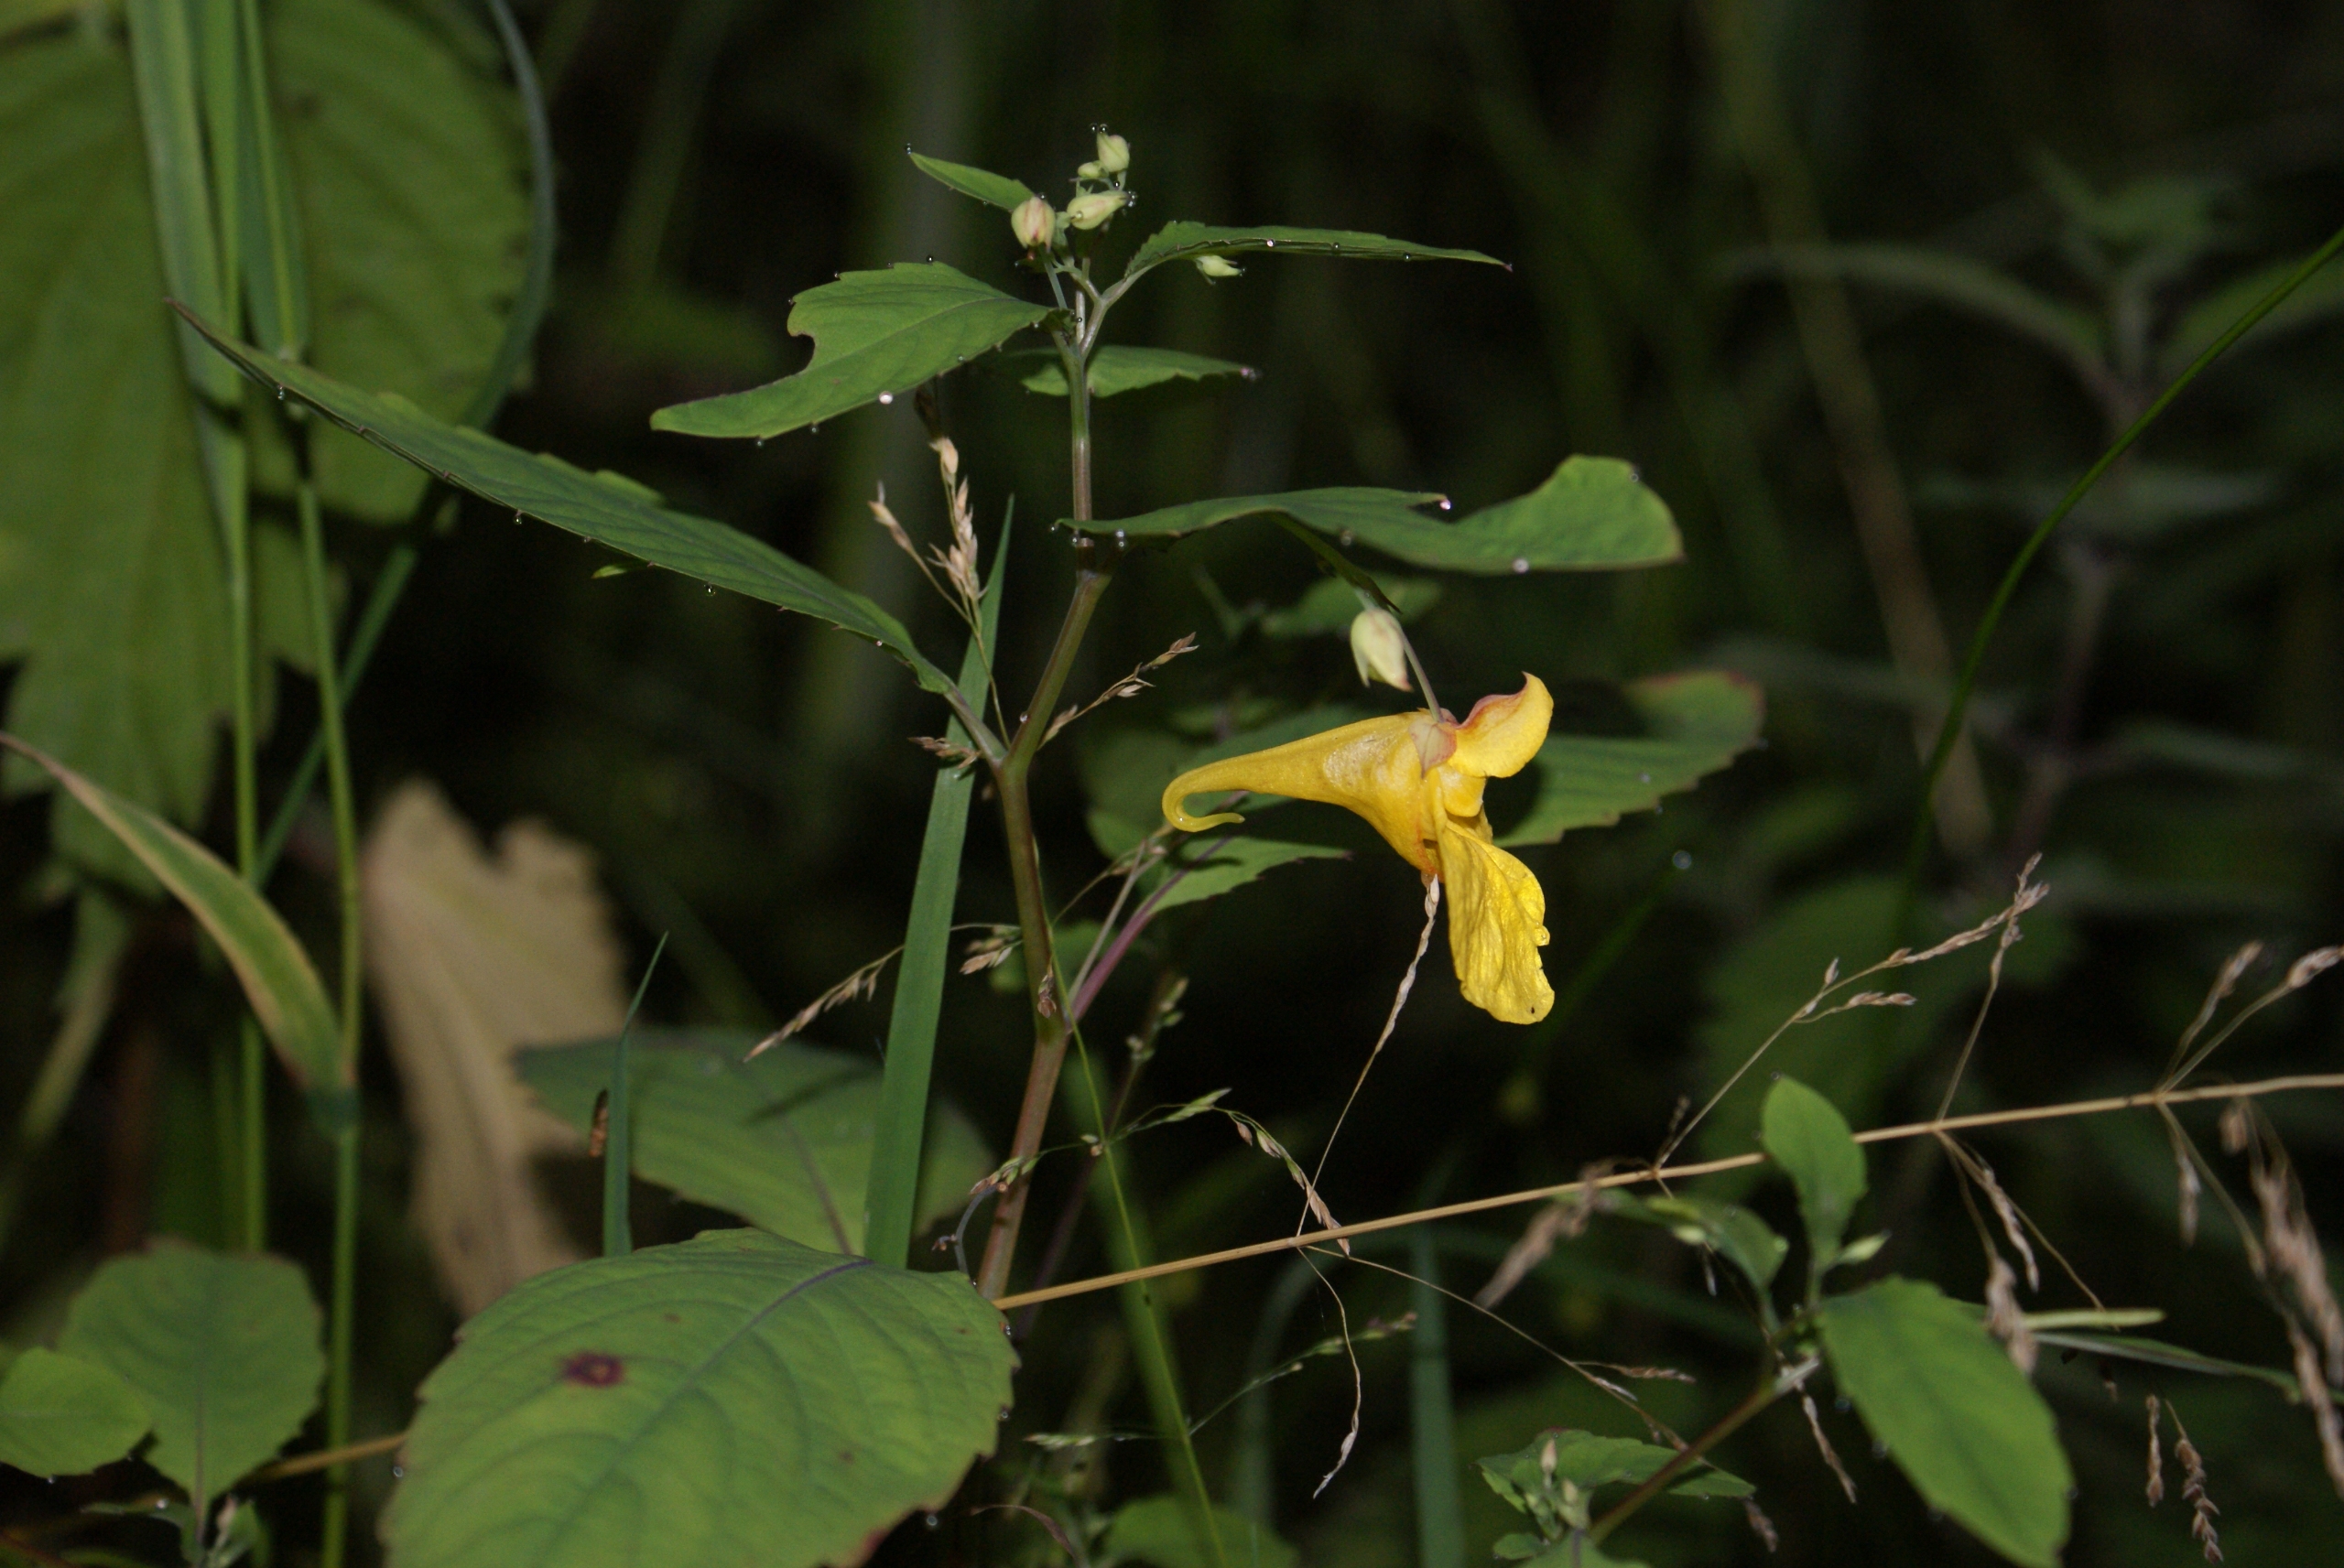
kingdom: Plantae
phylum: Tracheophyta
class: Magnoliopsida
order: Ericales
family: Balsaminaceae
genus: Impatiens
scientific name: Impatiens noli-tangere
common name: Spring-balsamin
